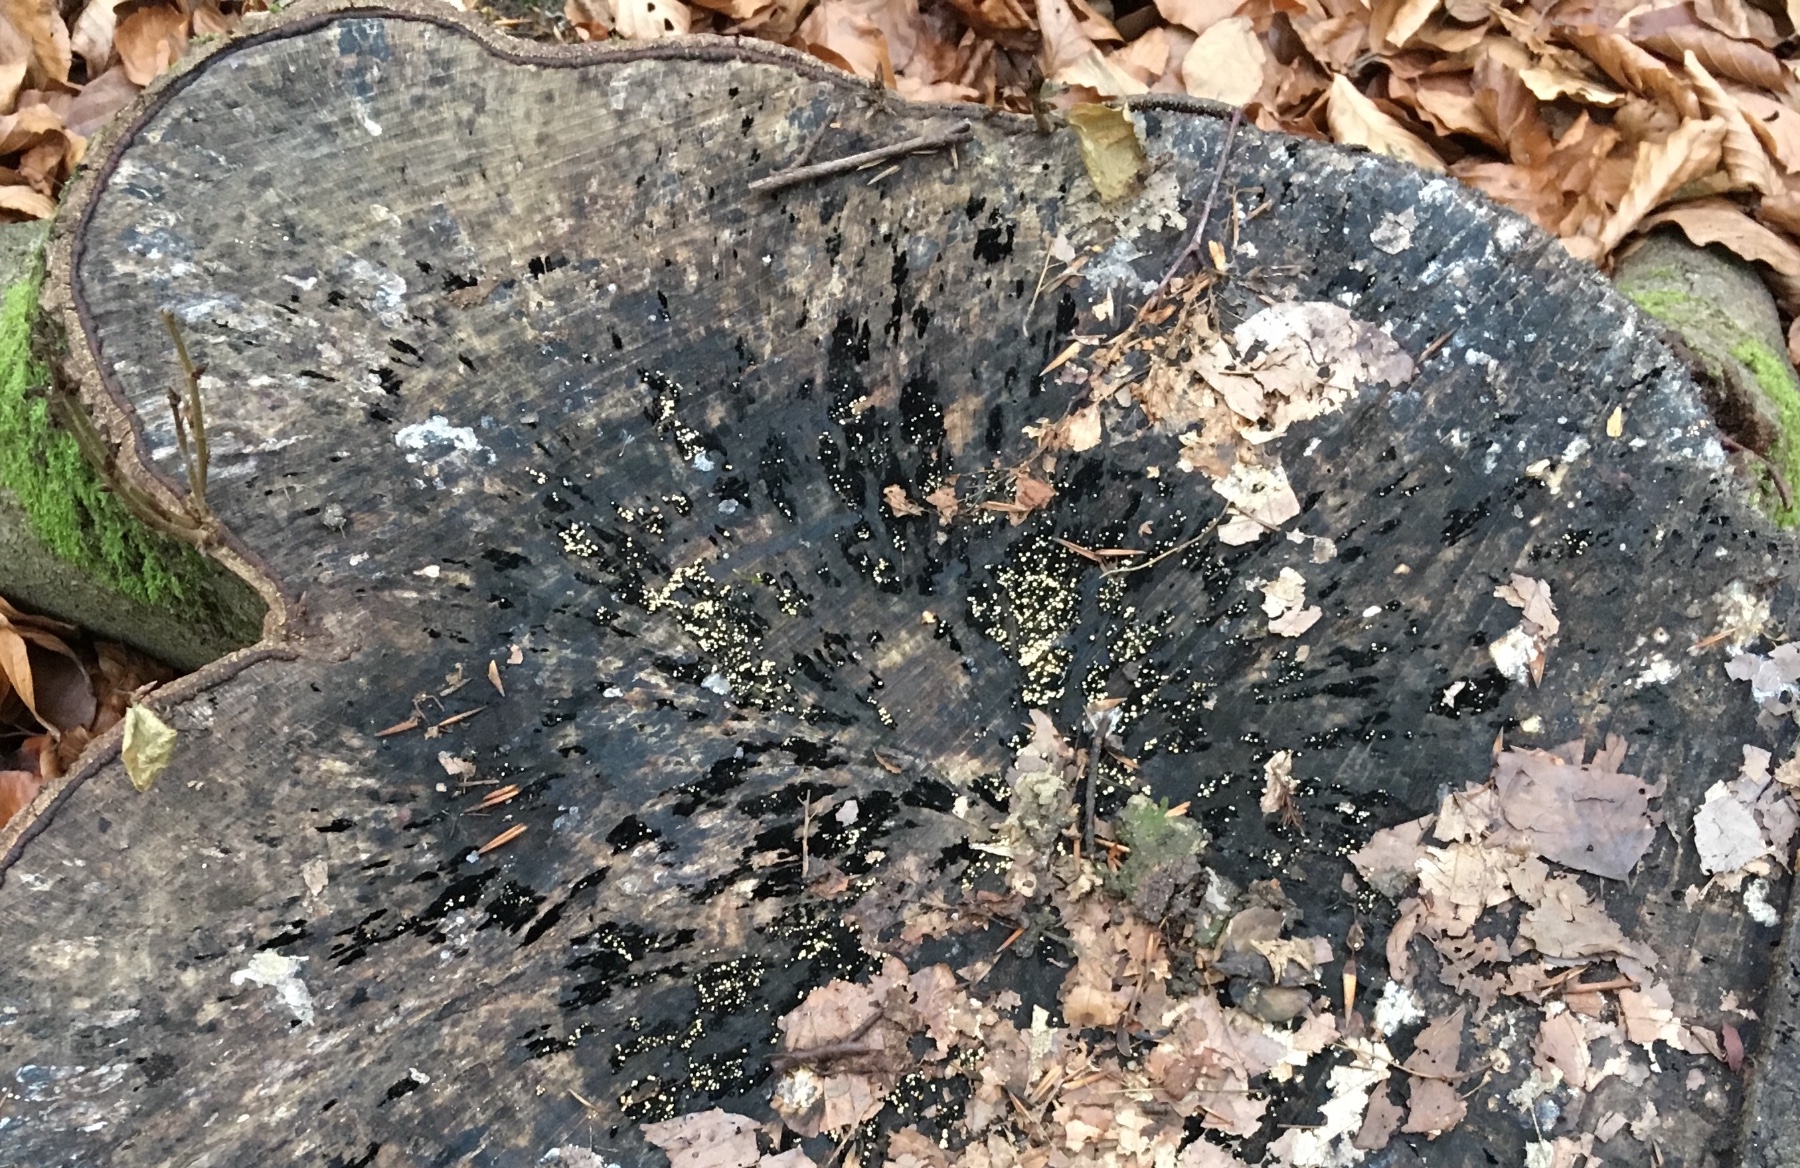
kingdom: Fungi
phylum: Ascomycota
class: Leotiomycetes
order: Helotiales
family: Helotiaceae
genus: Bispora
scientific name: Bispora pallescens
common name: måtte-snitskive
